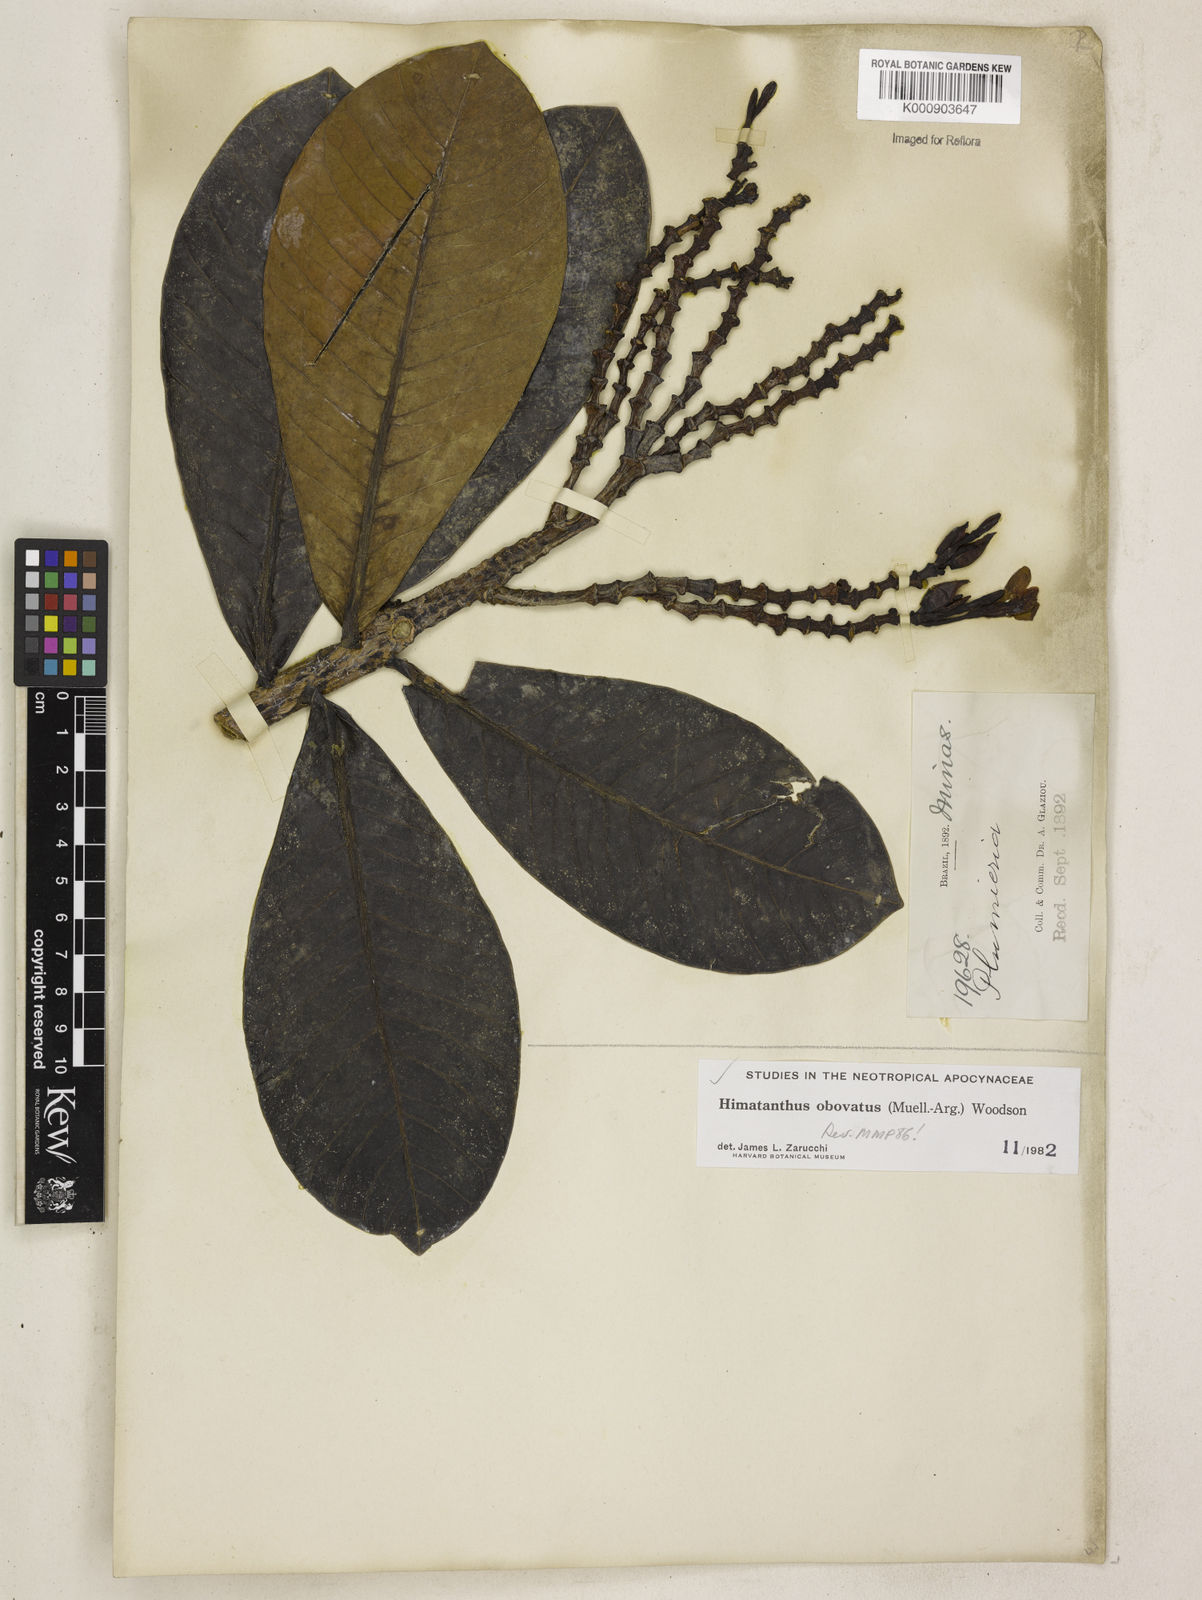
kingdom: Plantae
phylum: Tracheophyta
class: Magnoliopsida
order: Gentianales
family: Apocynaceae
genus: Himatanthus
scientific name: Himatanthus
